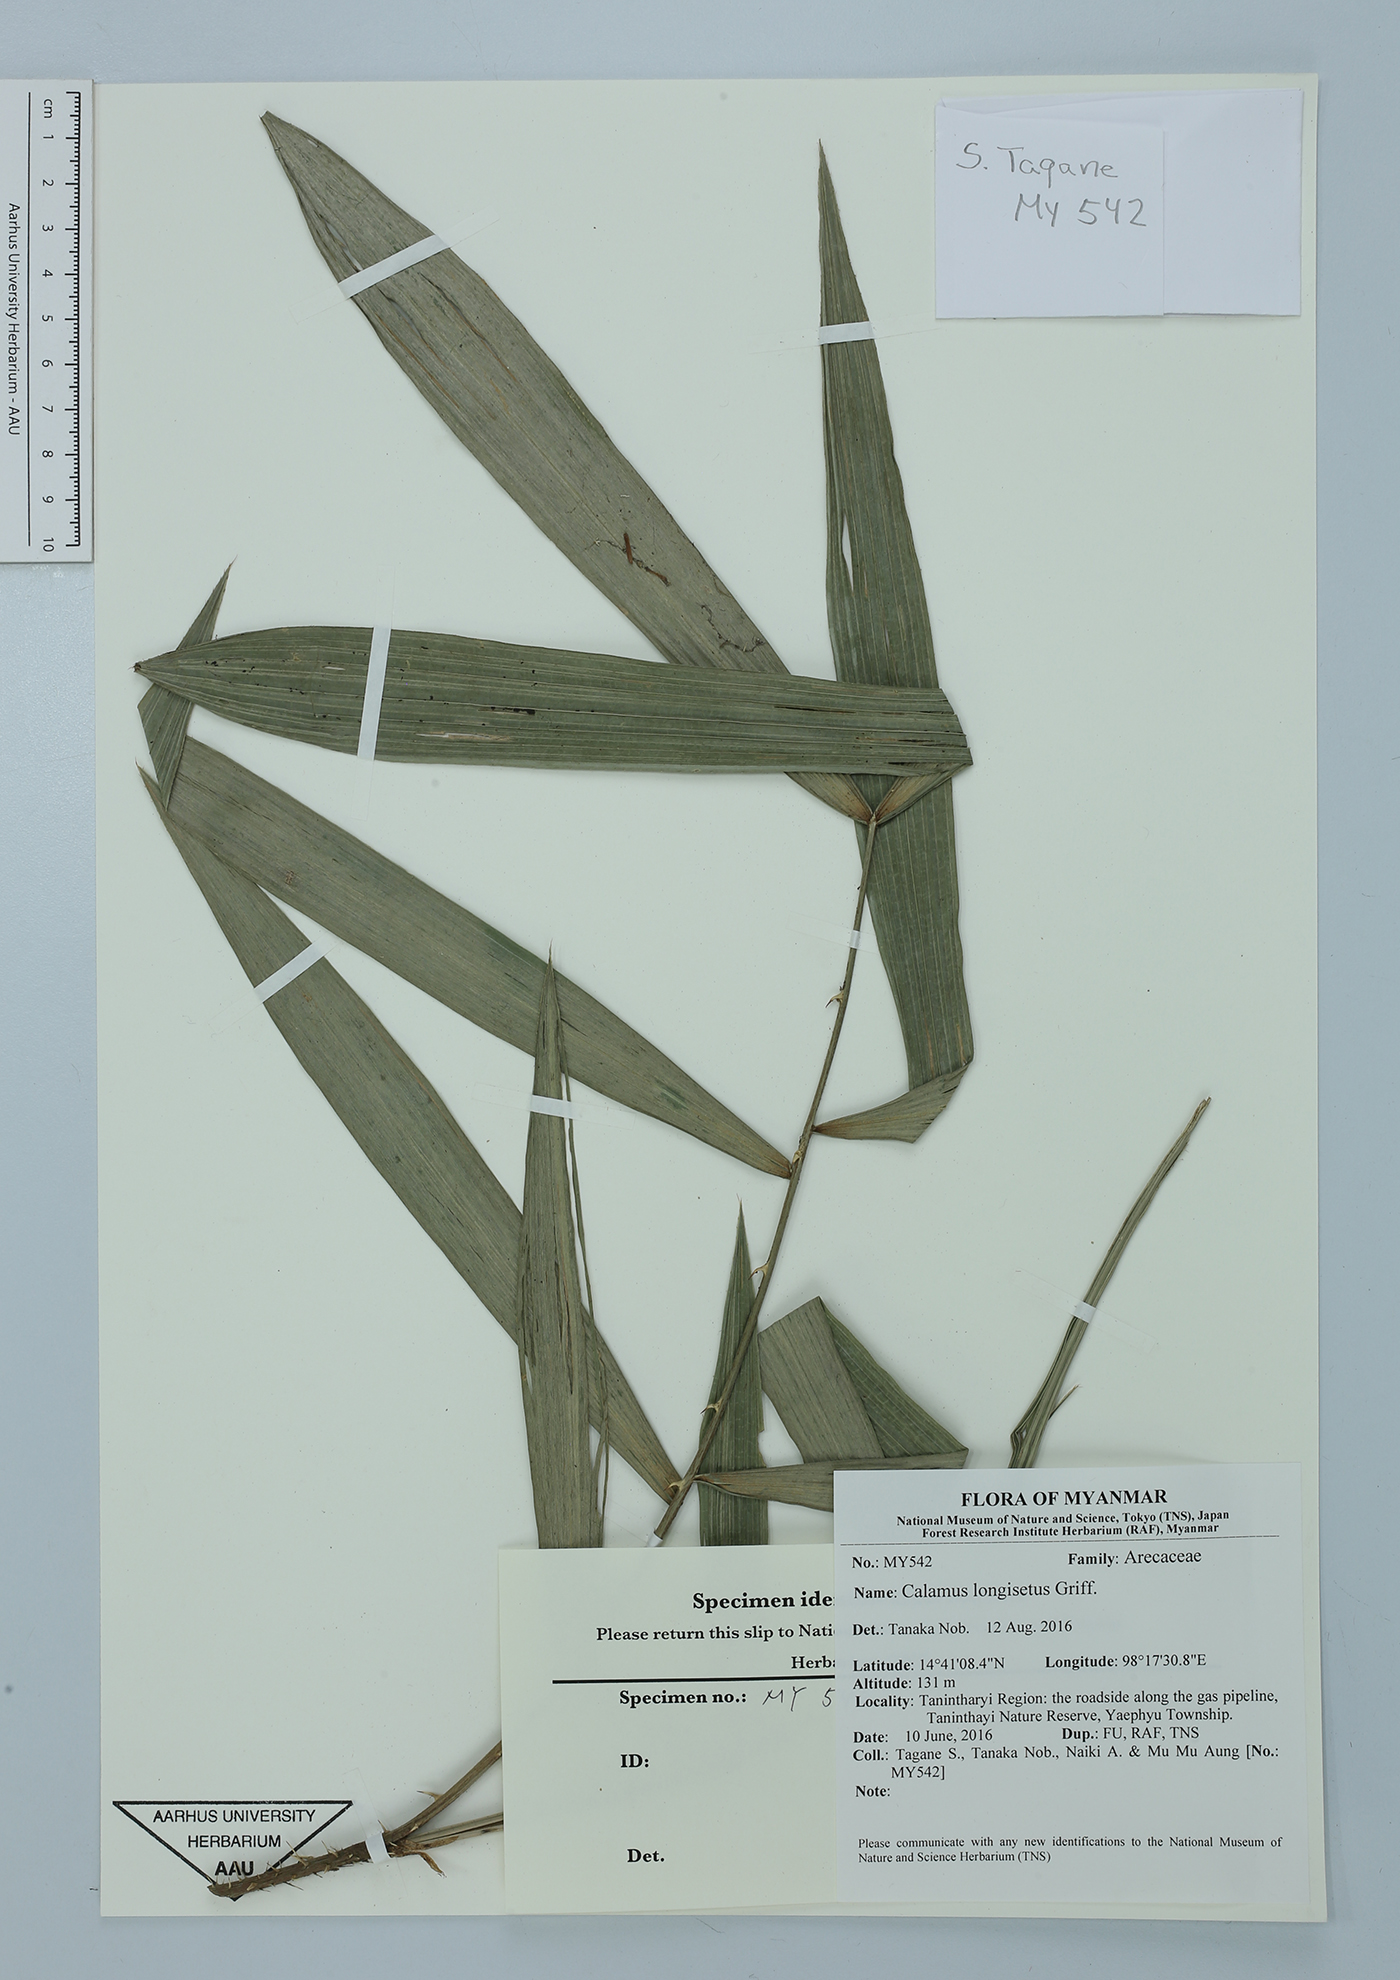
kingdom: Plantae
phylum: Tracheophyta
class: Liliopsida
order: Arecales
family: Arecaceae
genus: Calamus
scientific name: Calamus longisetus
